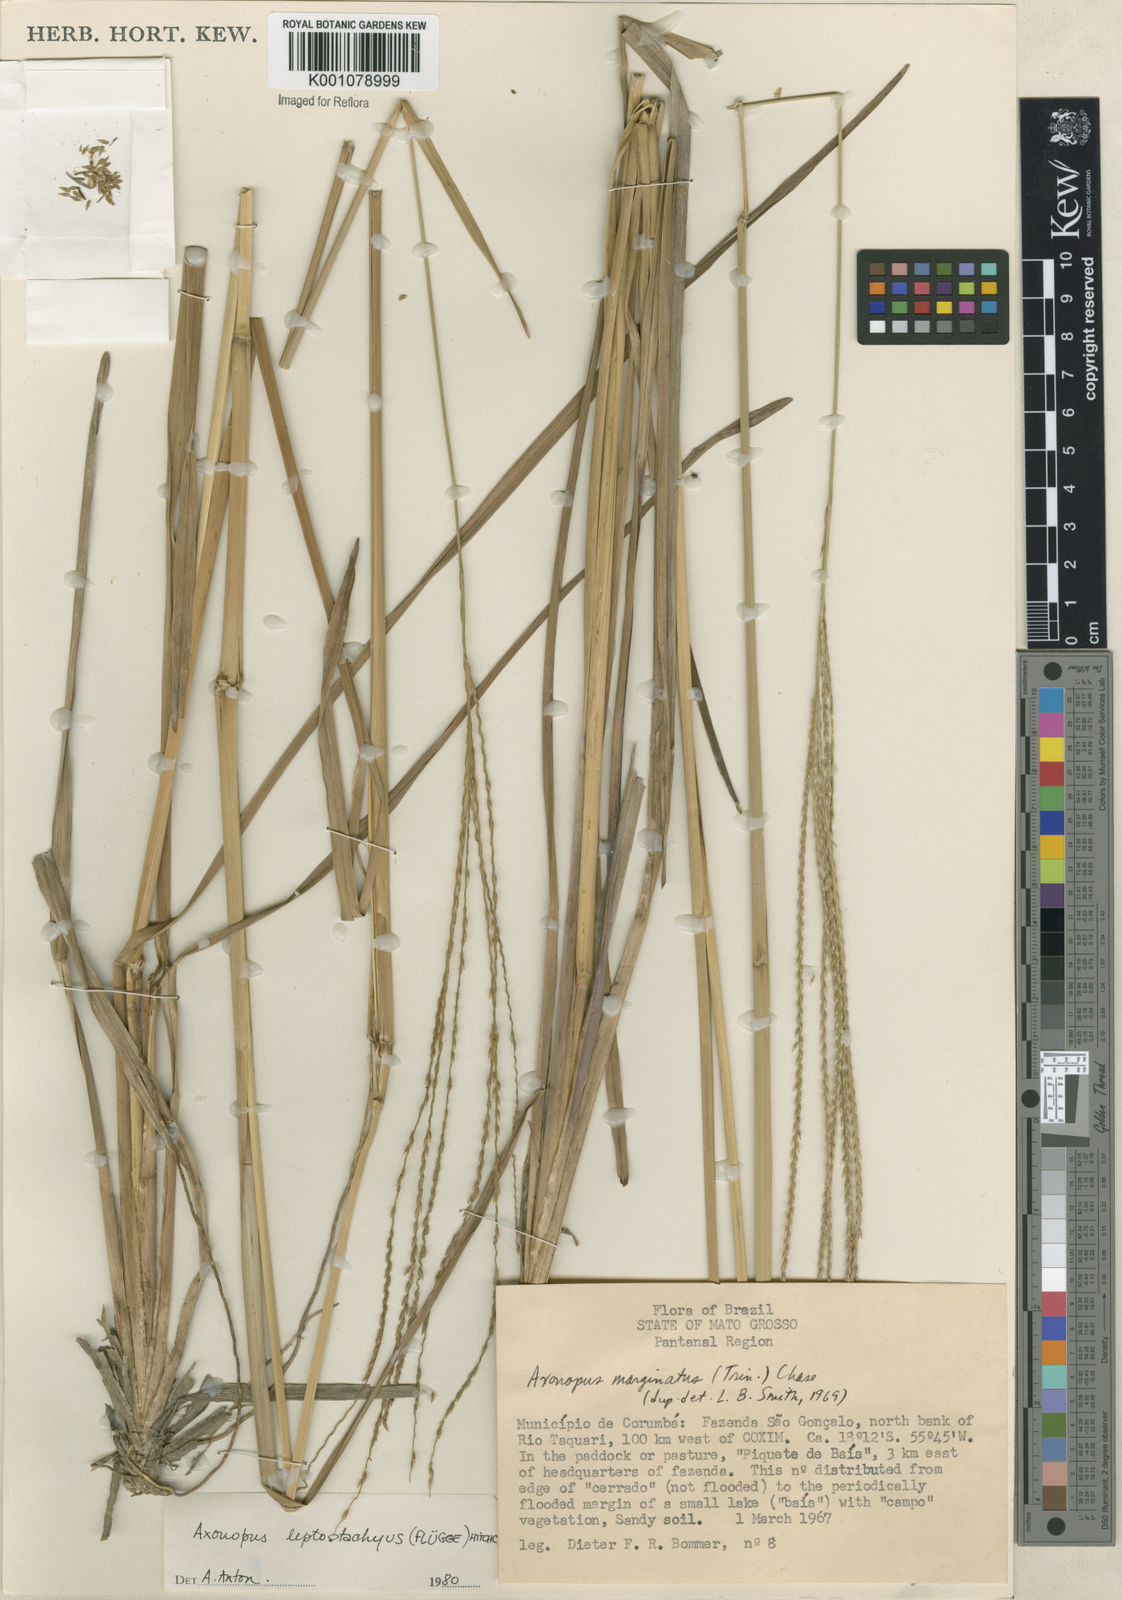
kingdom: Plantae
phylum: Tracheophyta
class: Liliopsida
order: Poales
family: Poaceae
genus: Axonopus
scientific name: Axonopus
